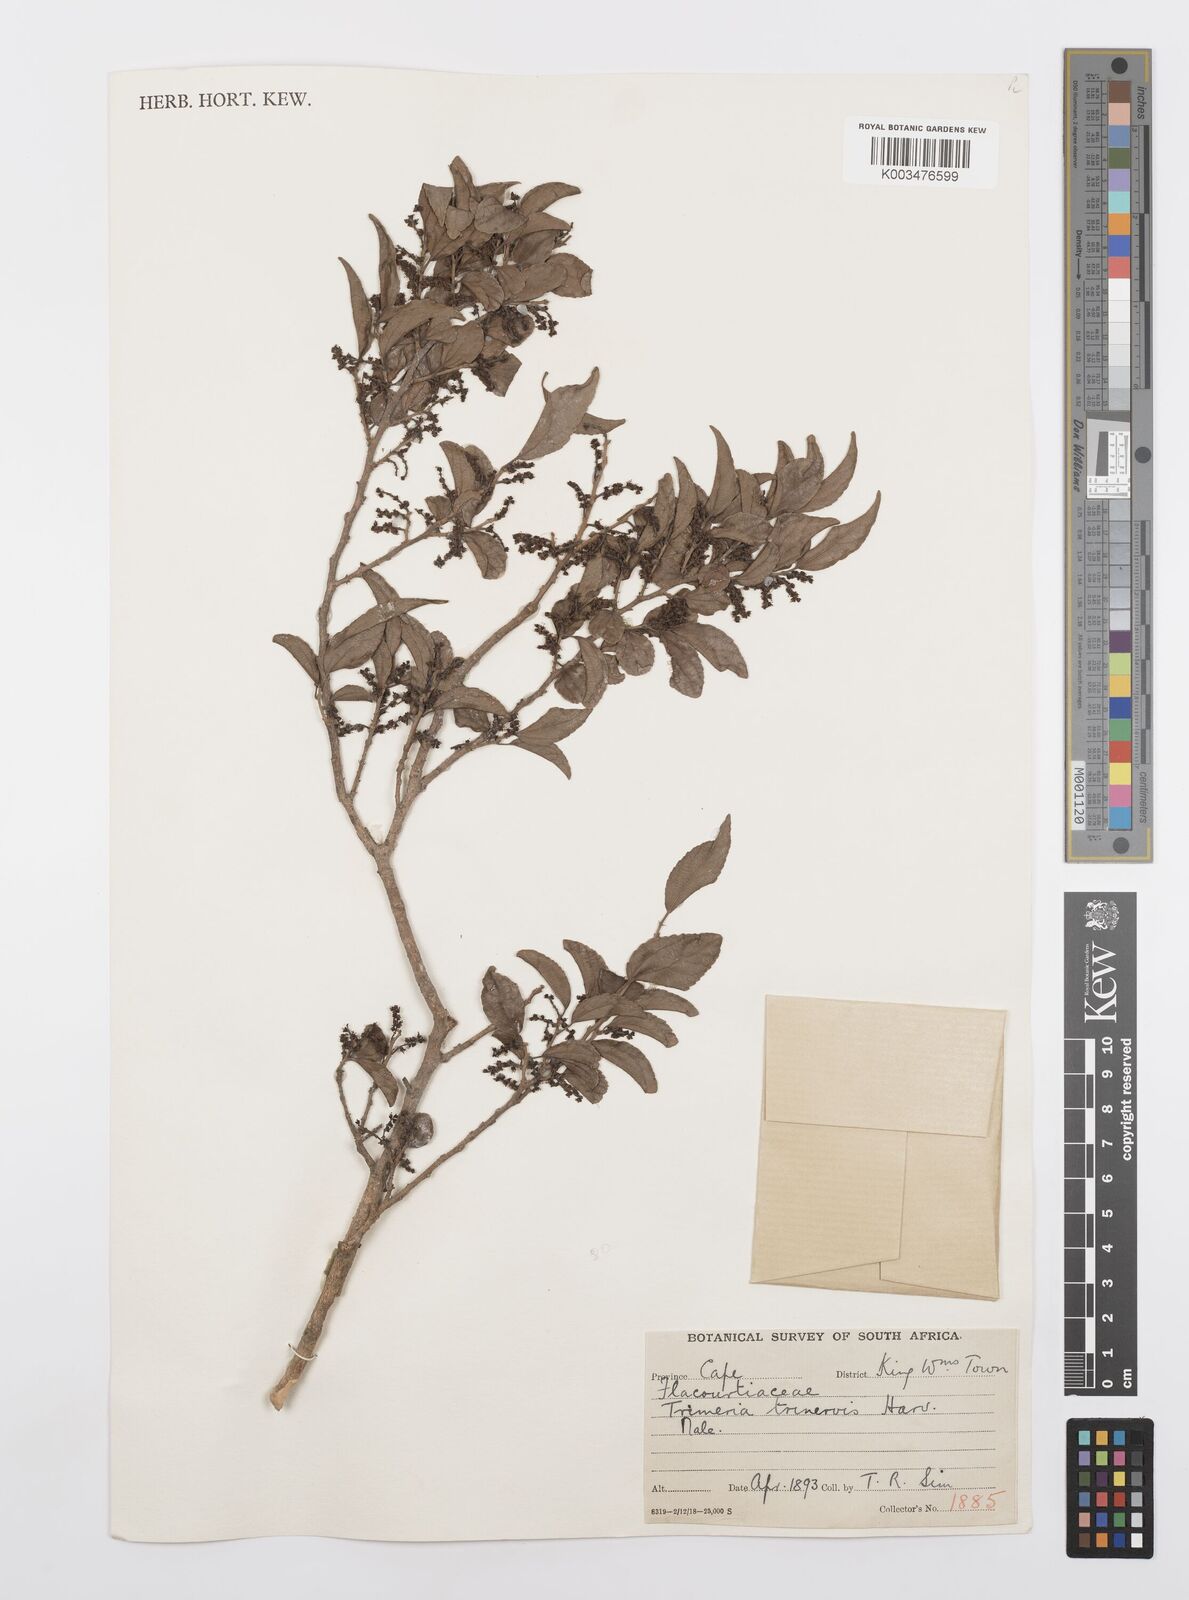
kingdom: Plantae
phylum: Tracheophyta
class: Magnoliopsida
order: Malpighiales
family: Salicaceae
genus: Trimeria
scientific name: Trimeria trinervis
